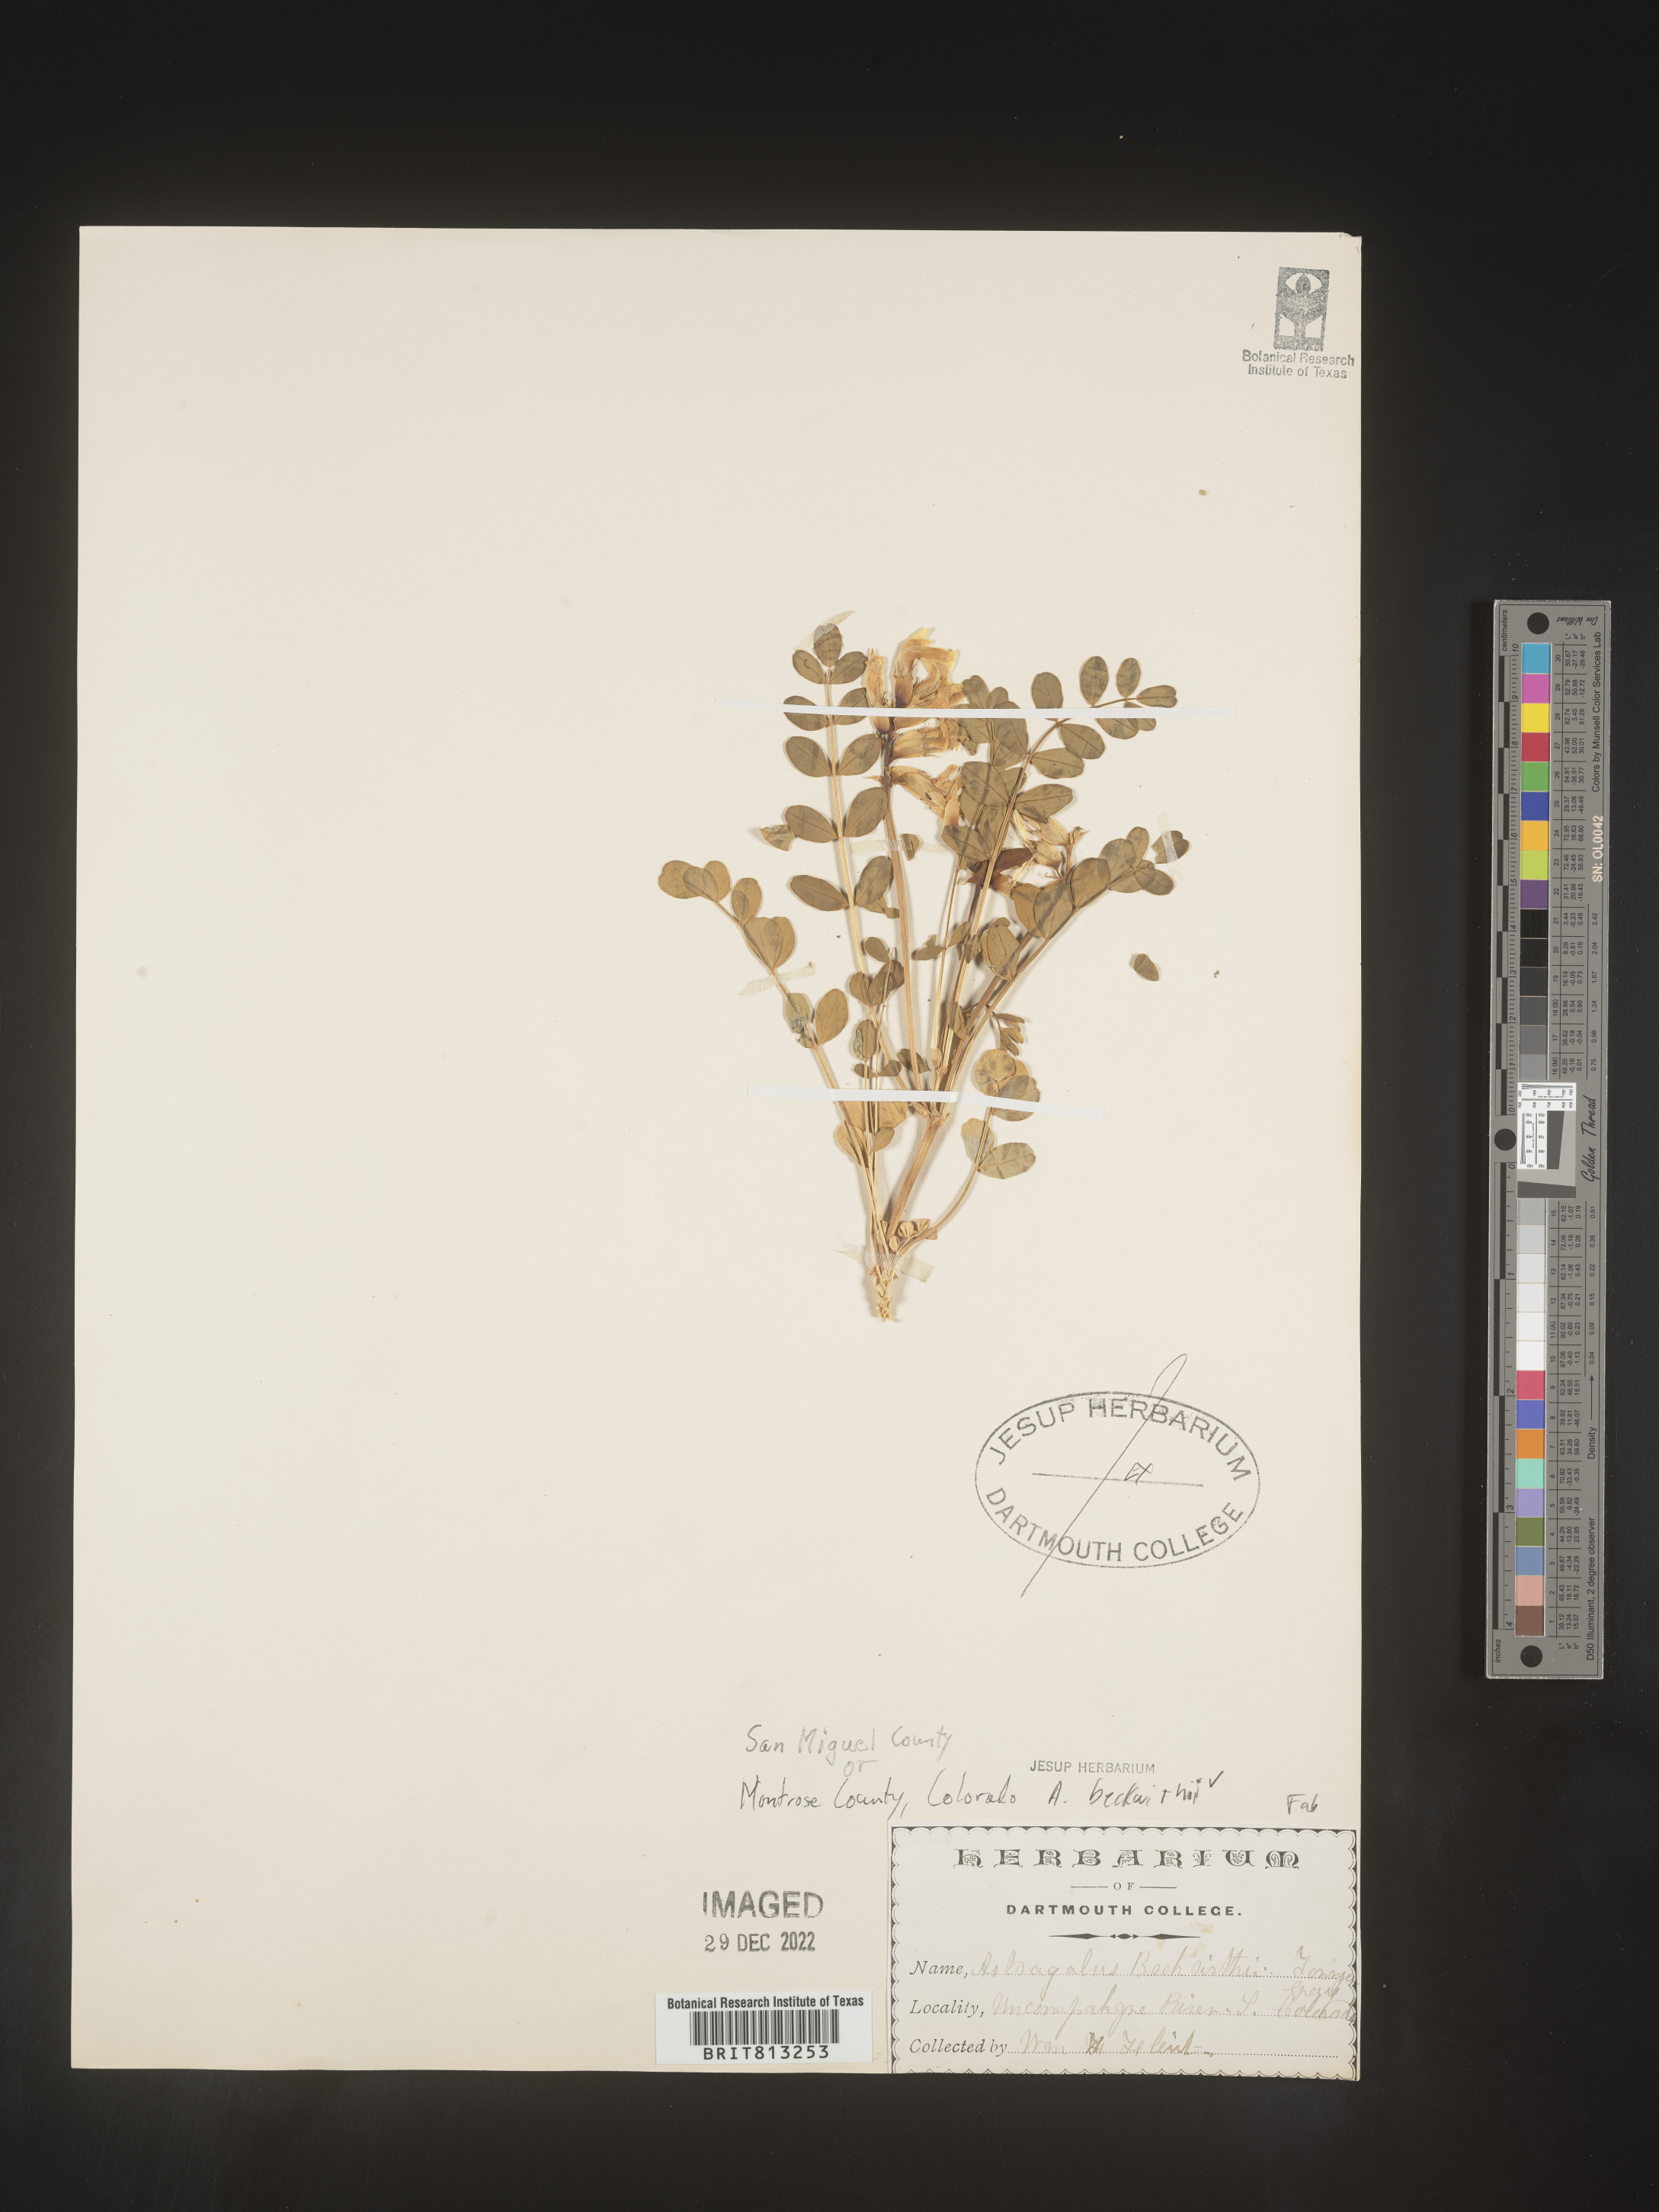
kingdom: Plantae
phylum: Tracheophyta
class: Magnoliopsida
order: Fabales
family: Fabaceae
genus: Astragalus
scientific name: Astragalus
